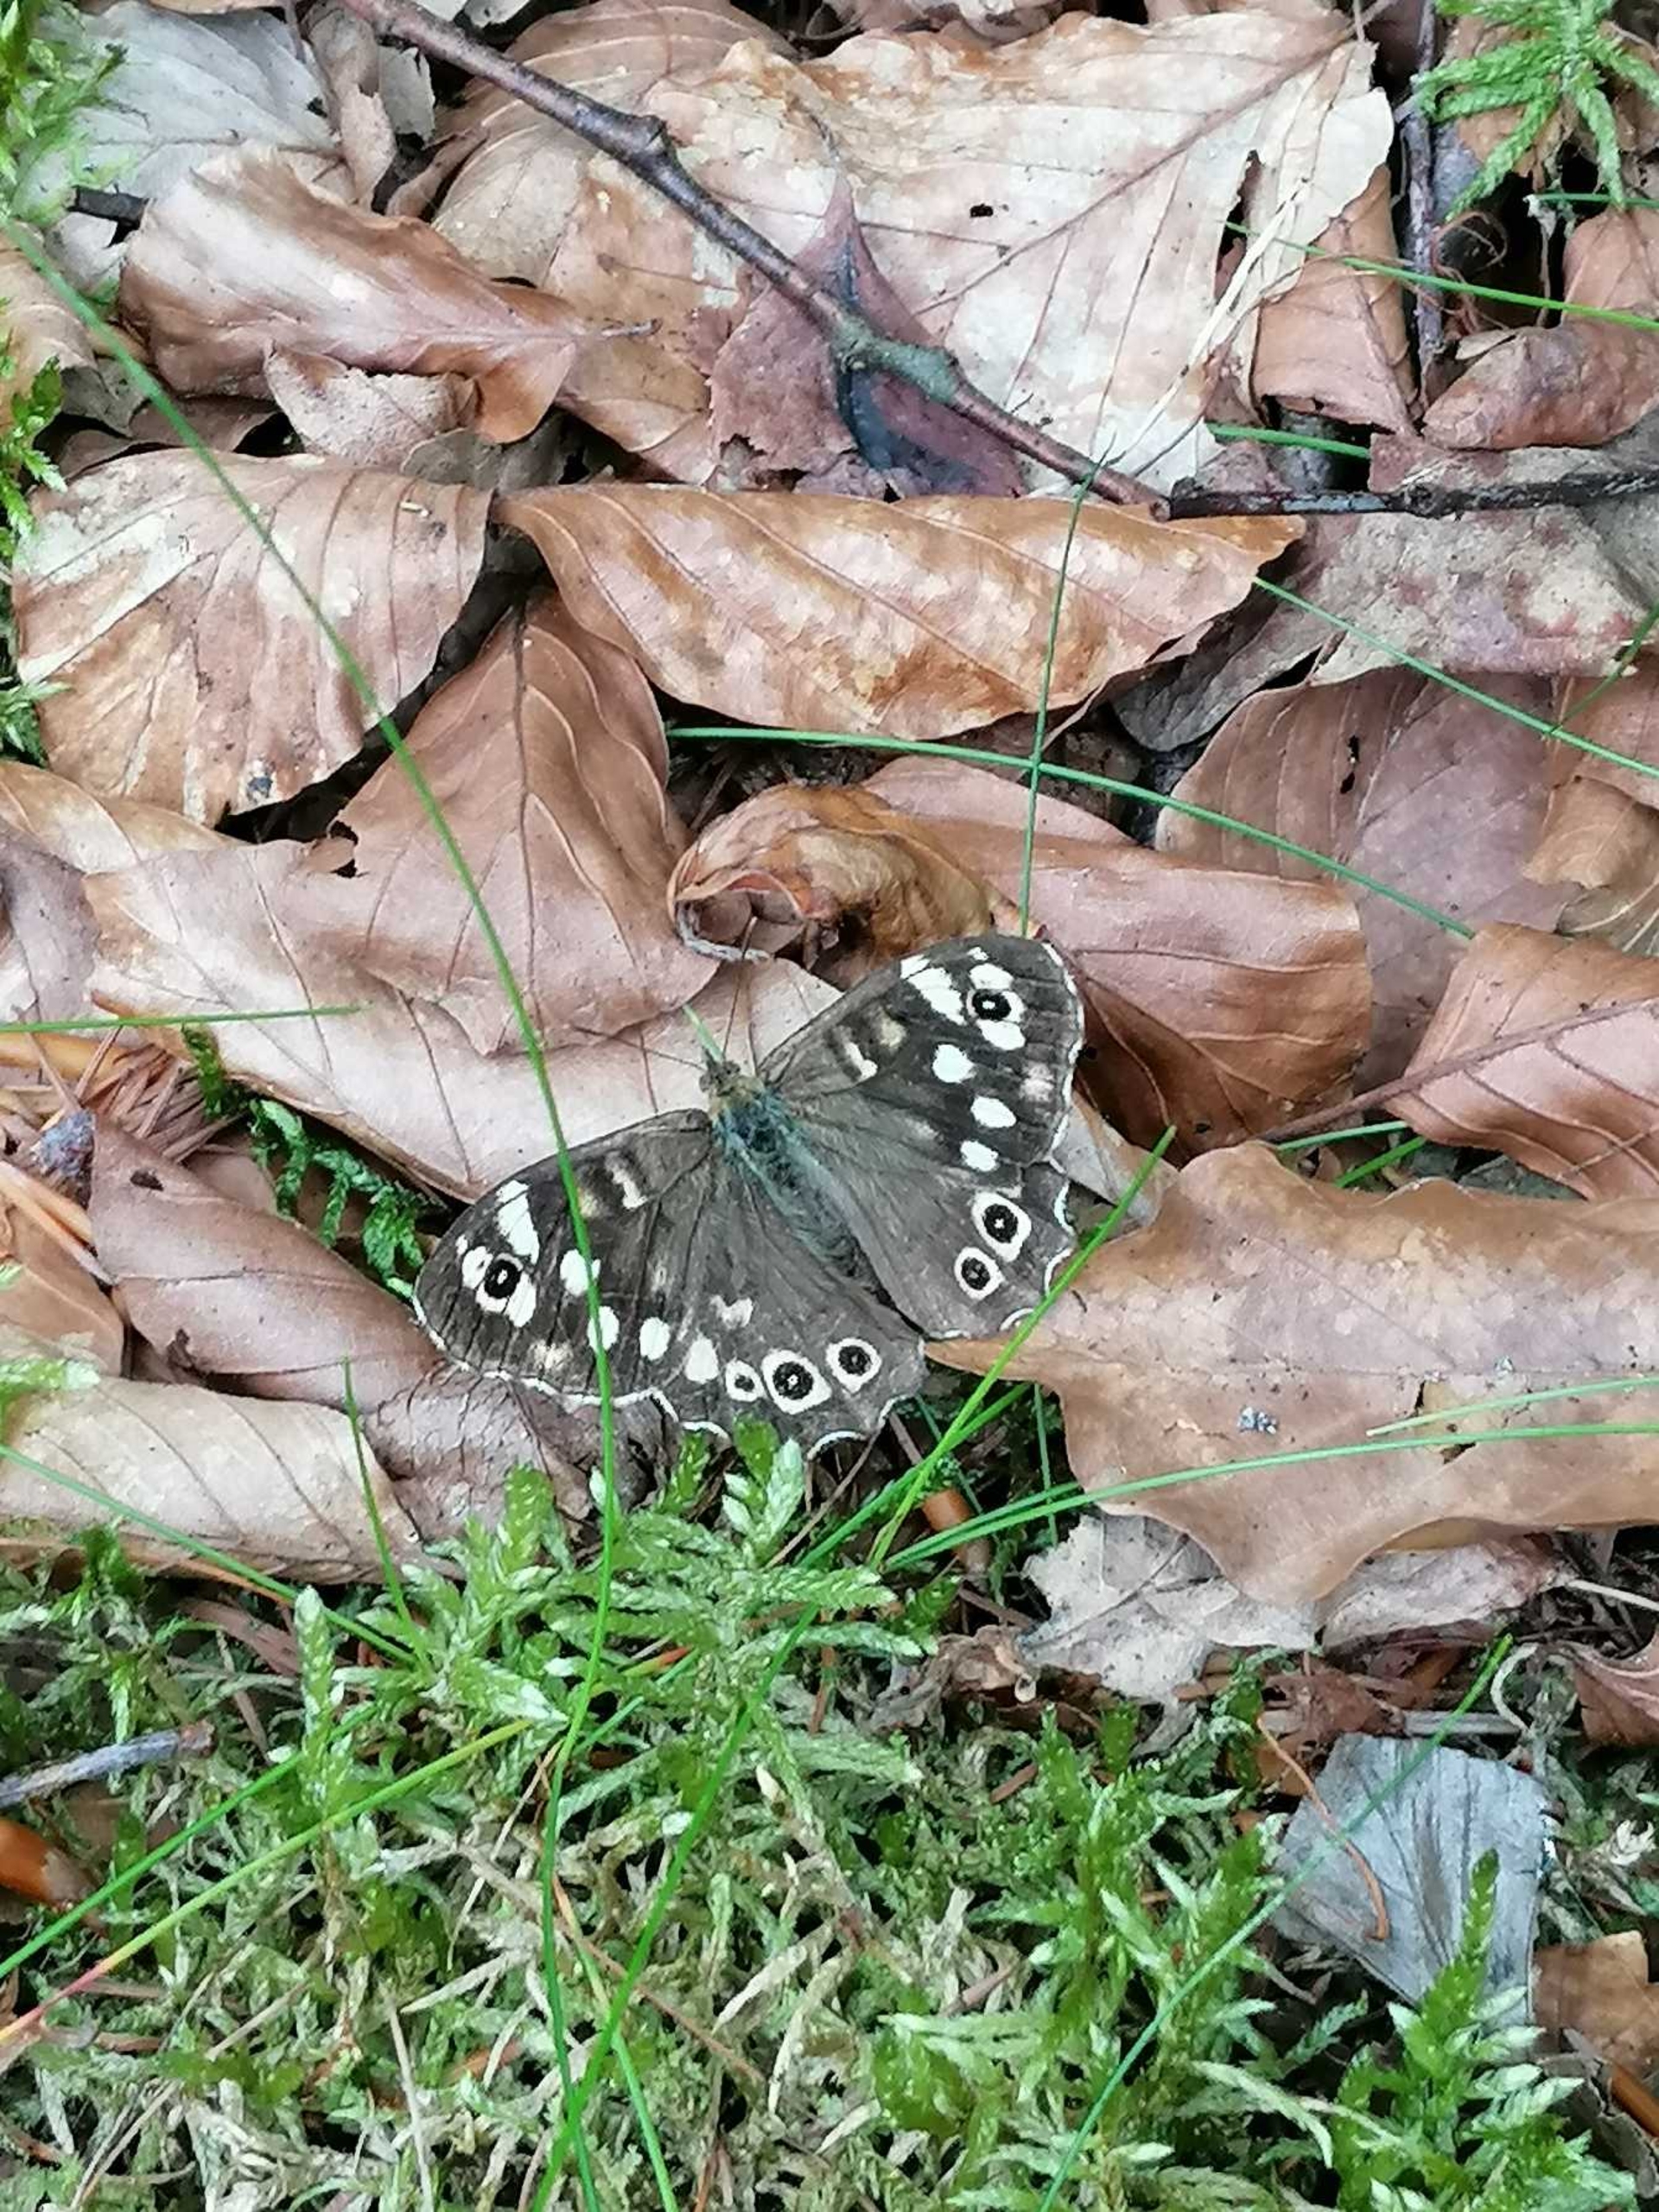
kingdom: Animalia
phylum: Arthropoda
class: Insecta
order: Lepidoptera
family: Nymphalidae
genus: Pararge
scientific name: Pararge aegeria
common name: Skovrandøje
